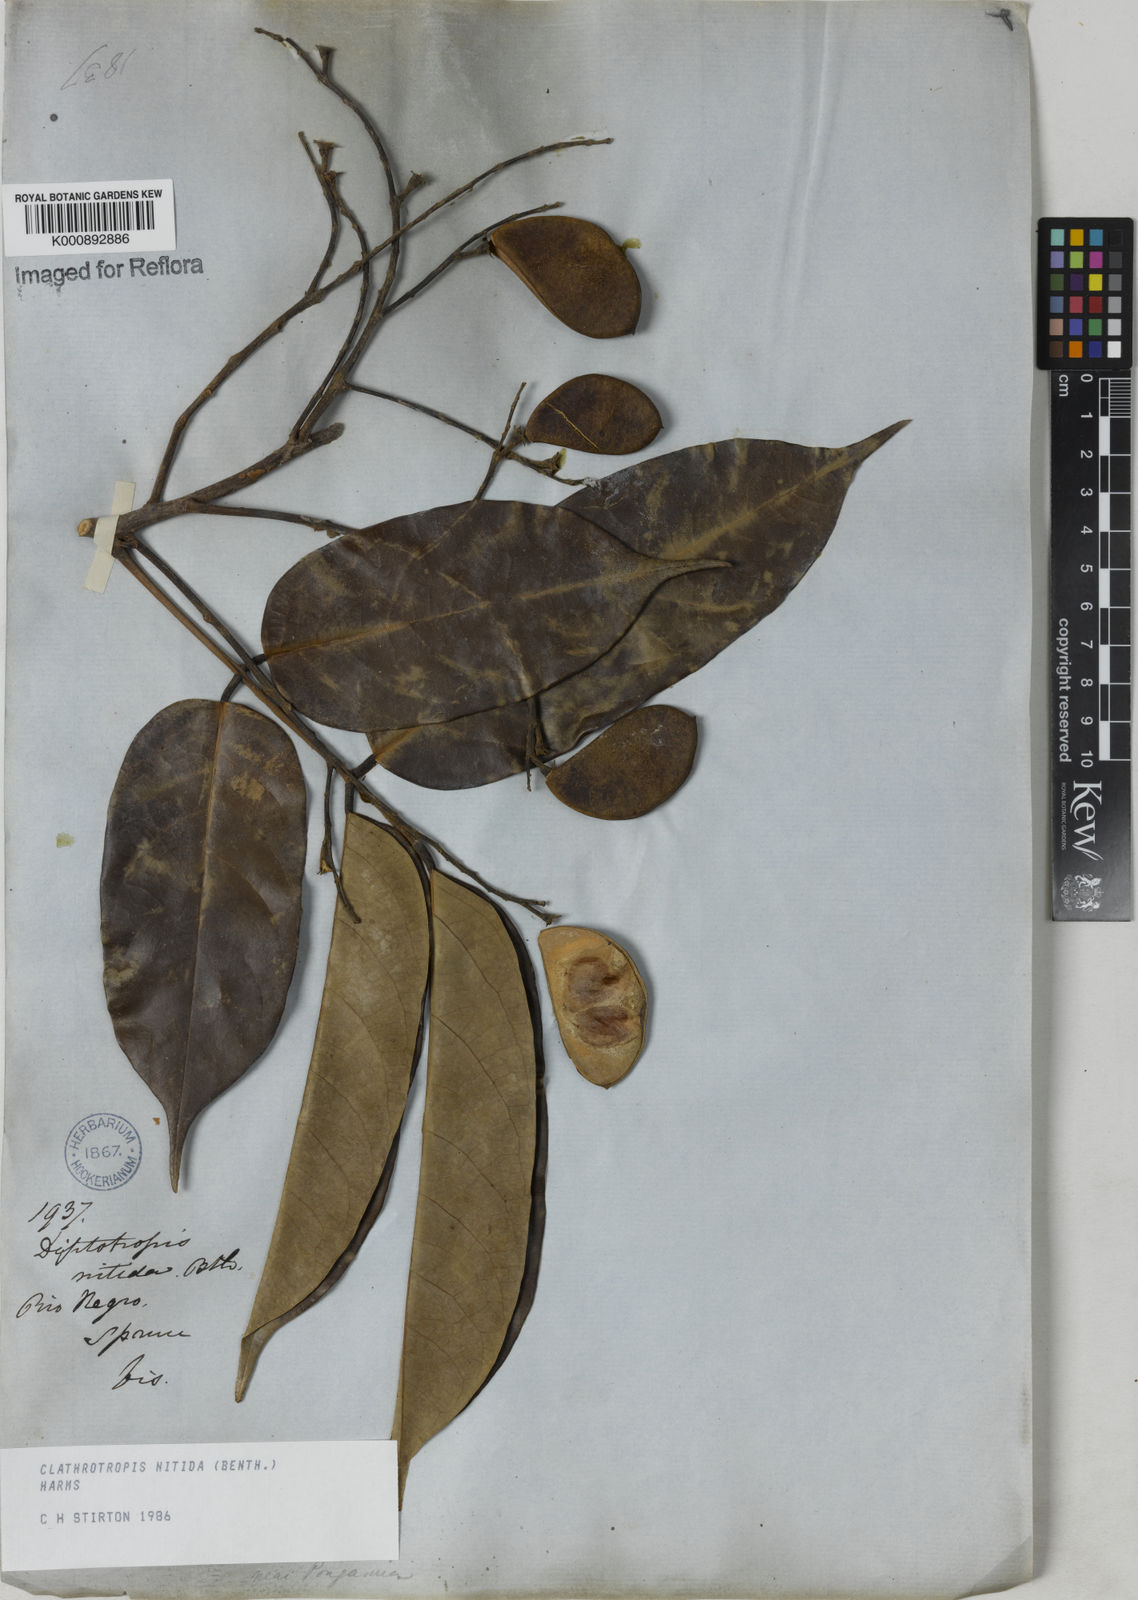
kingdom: Plantae
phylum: Tracheophyta
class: Magnoliopsida
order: Fabales
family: Fabaceae
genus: Clathrotropis
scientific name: Clathrotropis nitida
